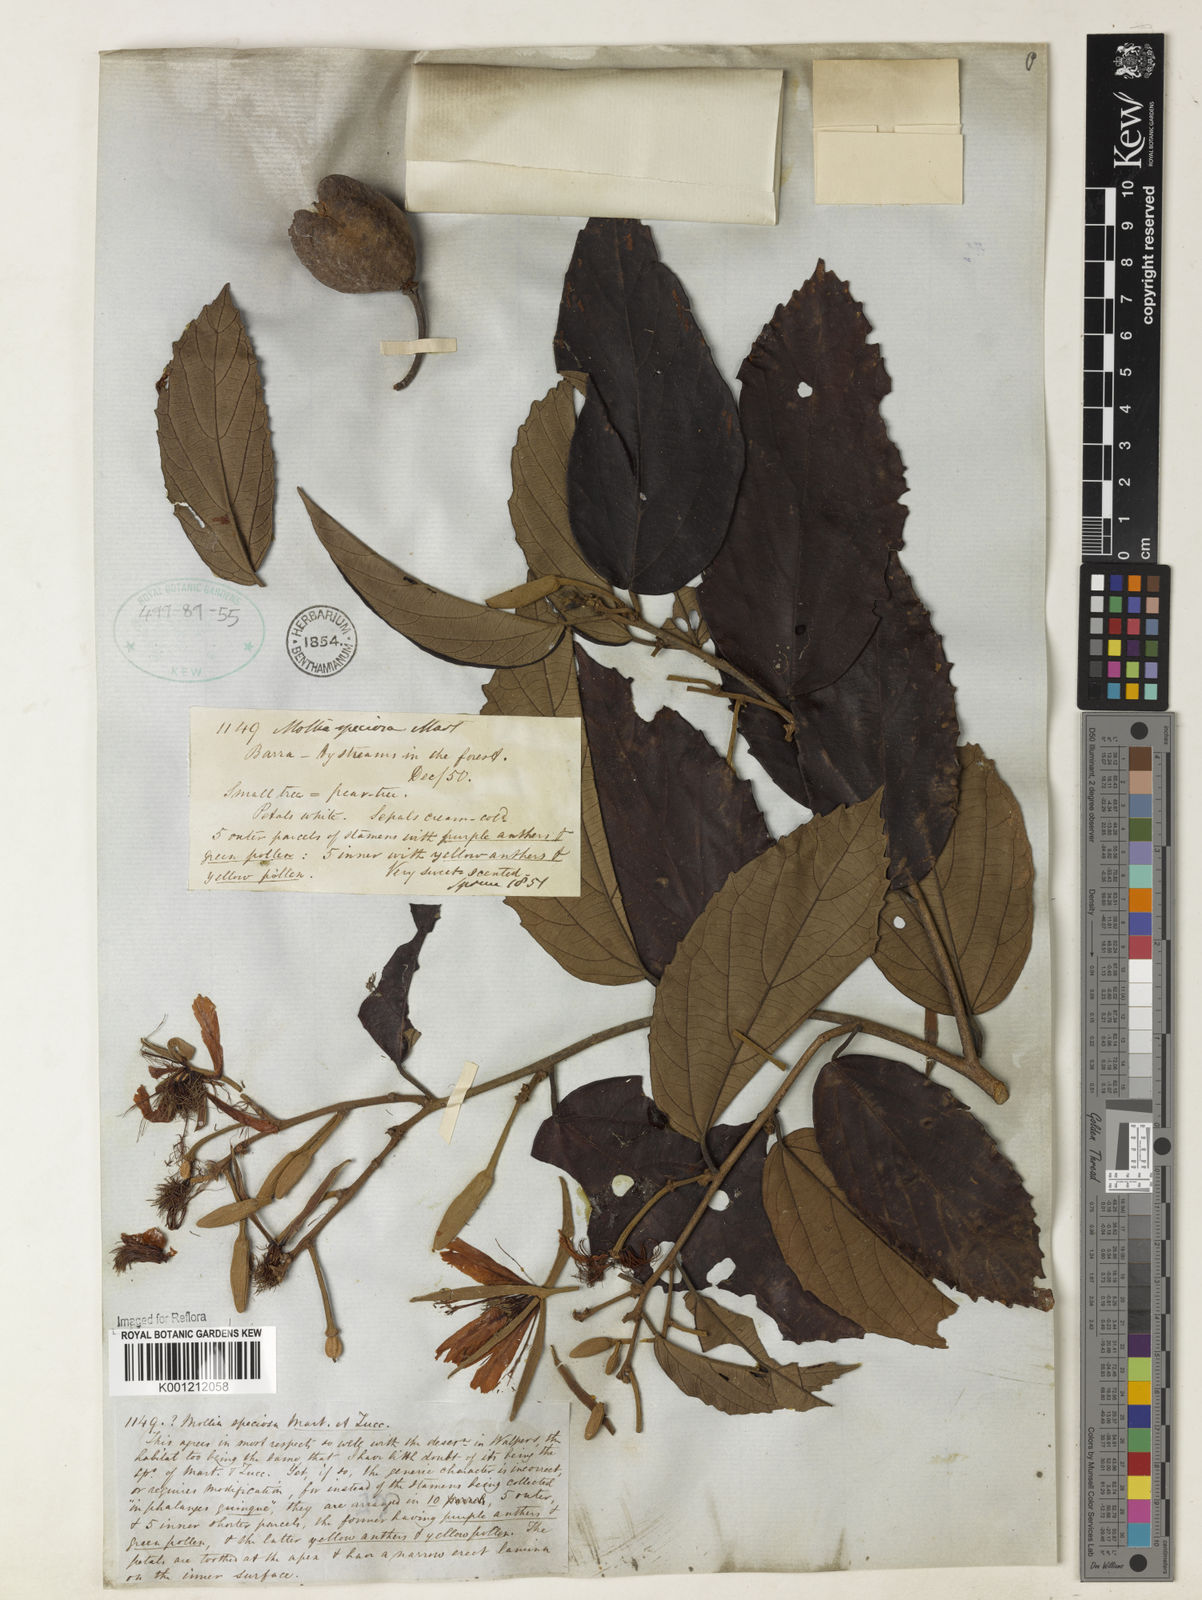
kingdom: Plantae
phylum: Tracheophyta
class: Magnoliopsida
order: Malvales
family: Malvaceae
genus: Mollia
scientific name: Mollia speciosa
